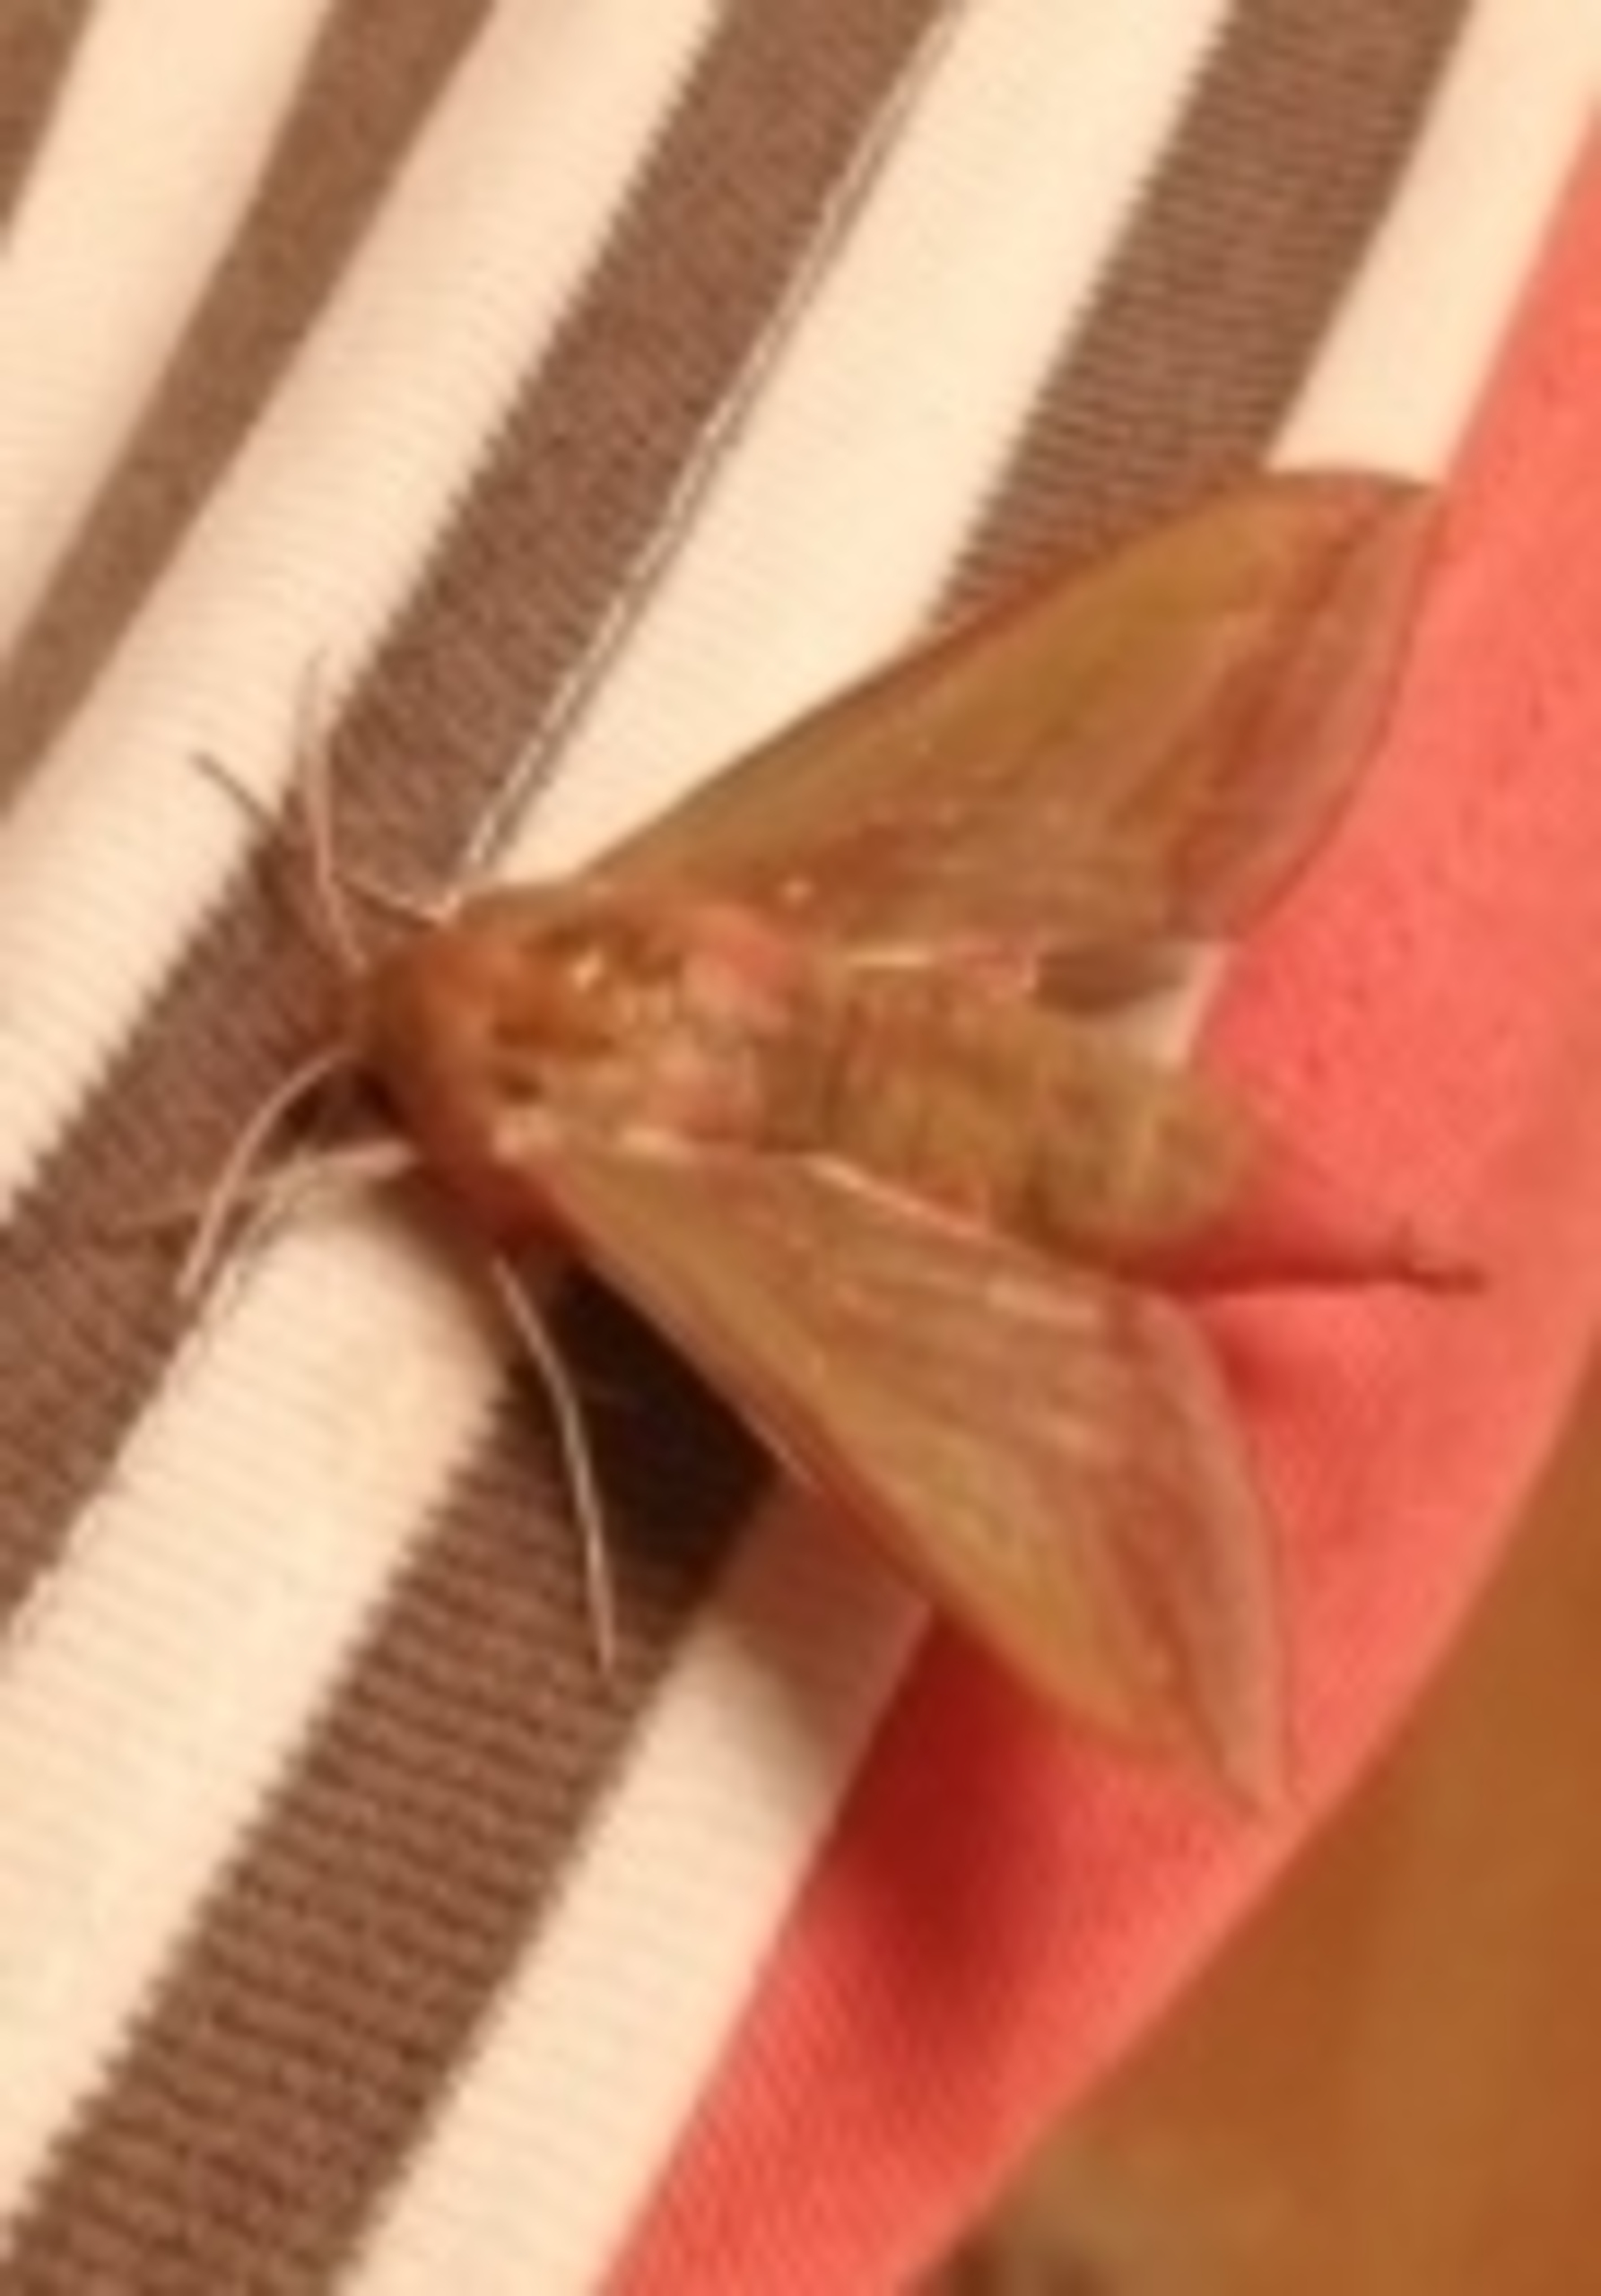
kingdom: Animalia
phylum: Arthropoda
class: Insecta
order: Lepidoptera
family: Sphingidae
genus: Deilephila
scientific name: Deilephila elpenor
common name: Dueurtsværmer
